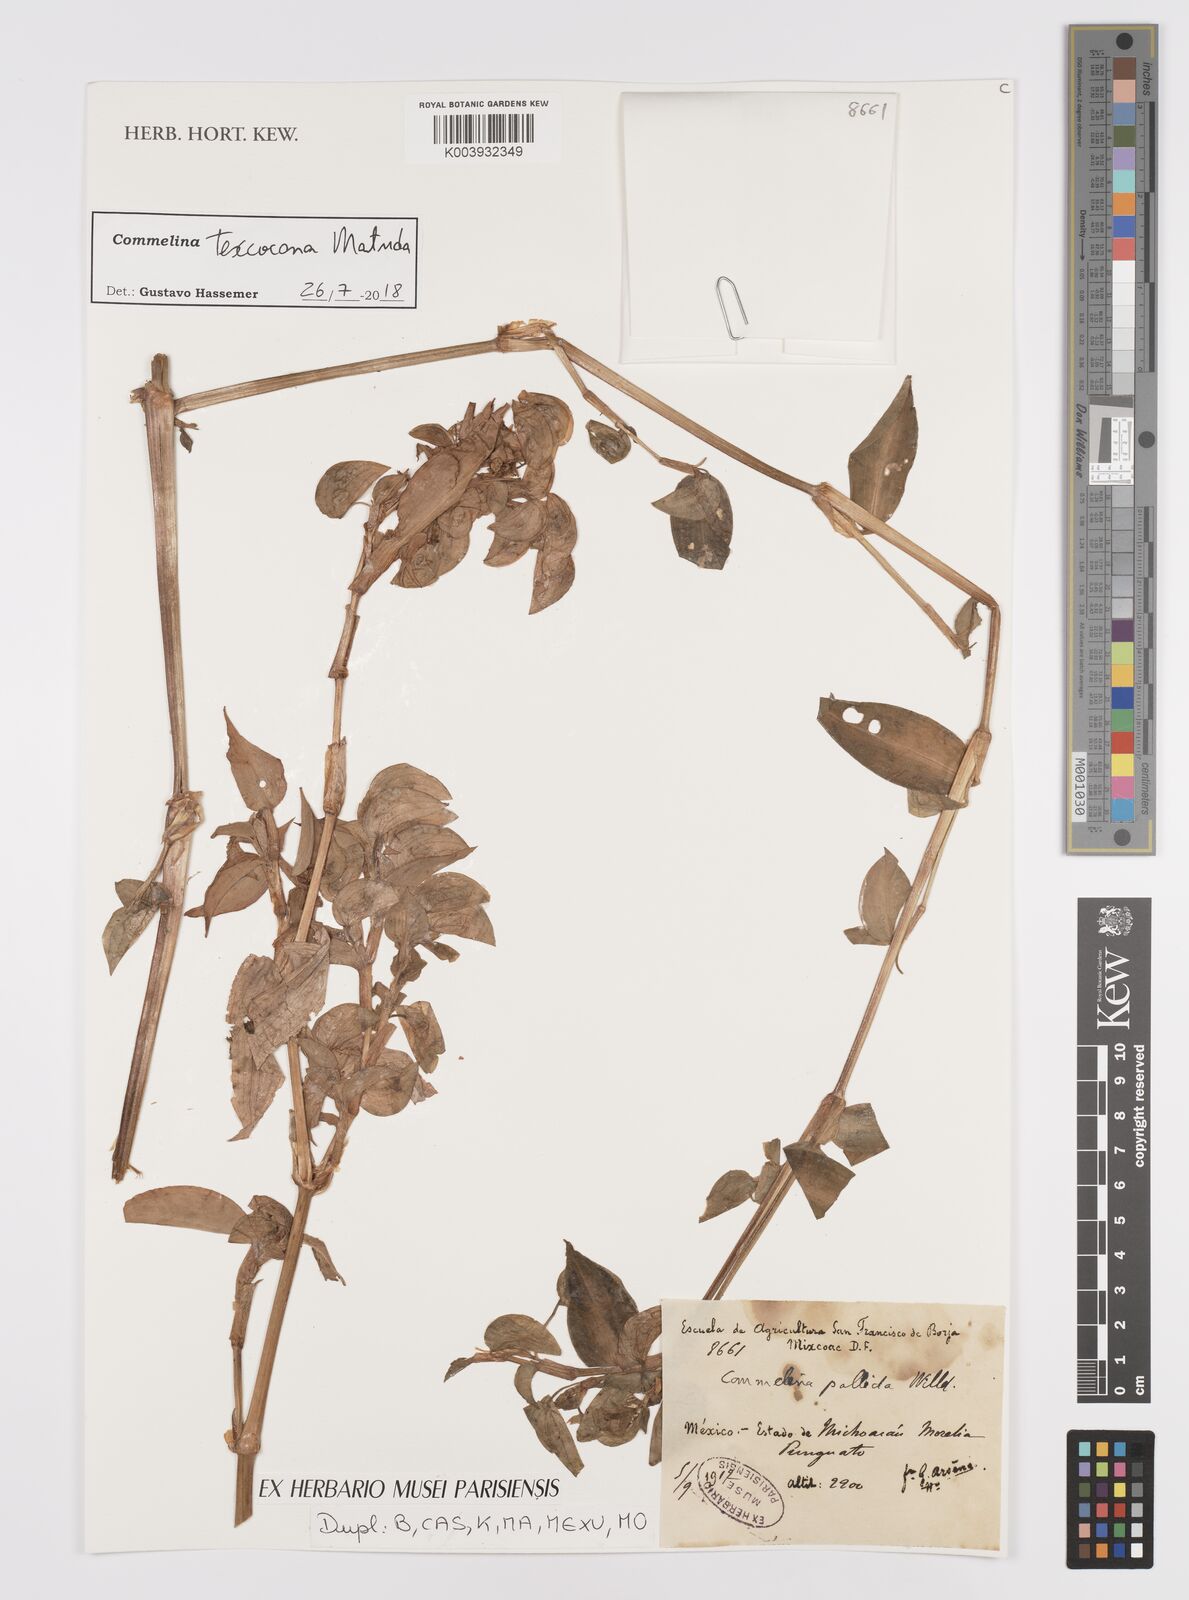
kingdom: Plantae
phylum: Tracheophyta
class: Liliopsida
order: Commelinales
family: Commelinaceae
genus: Commelina
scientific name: Commelina texcocana
